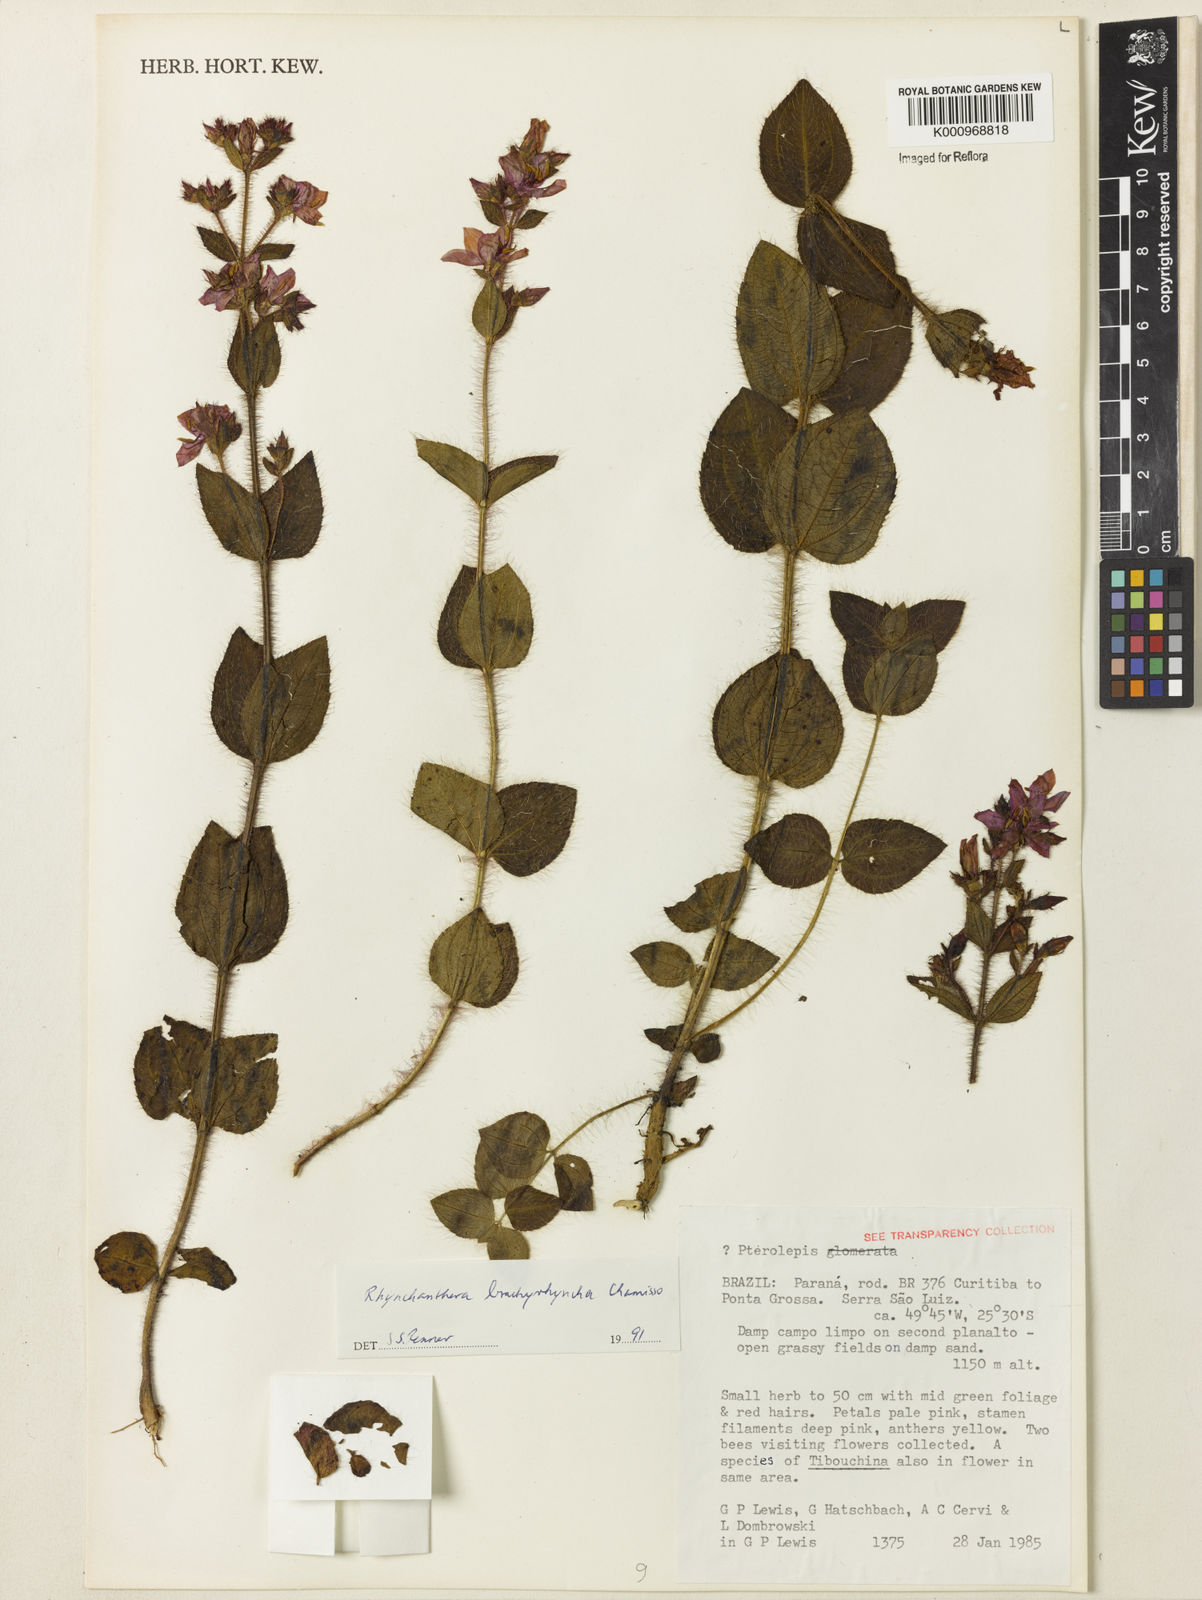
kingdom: Plantae
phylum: Tracheophyta
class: Magnoliopsida
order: Myrtales
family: Melastomataceae
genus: Rhynchanthera
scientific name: Rhynchanthera brachyrhyncha
